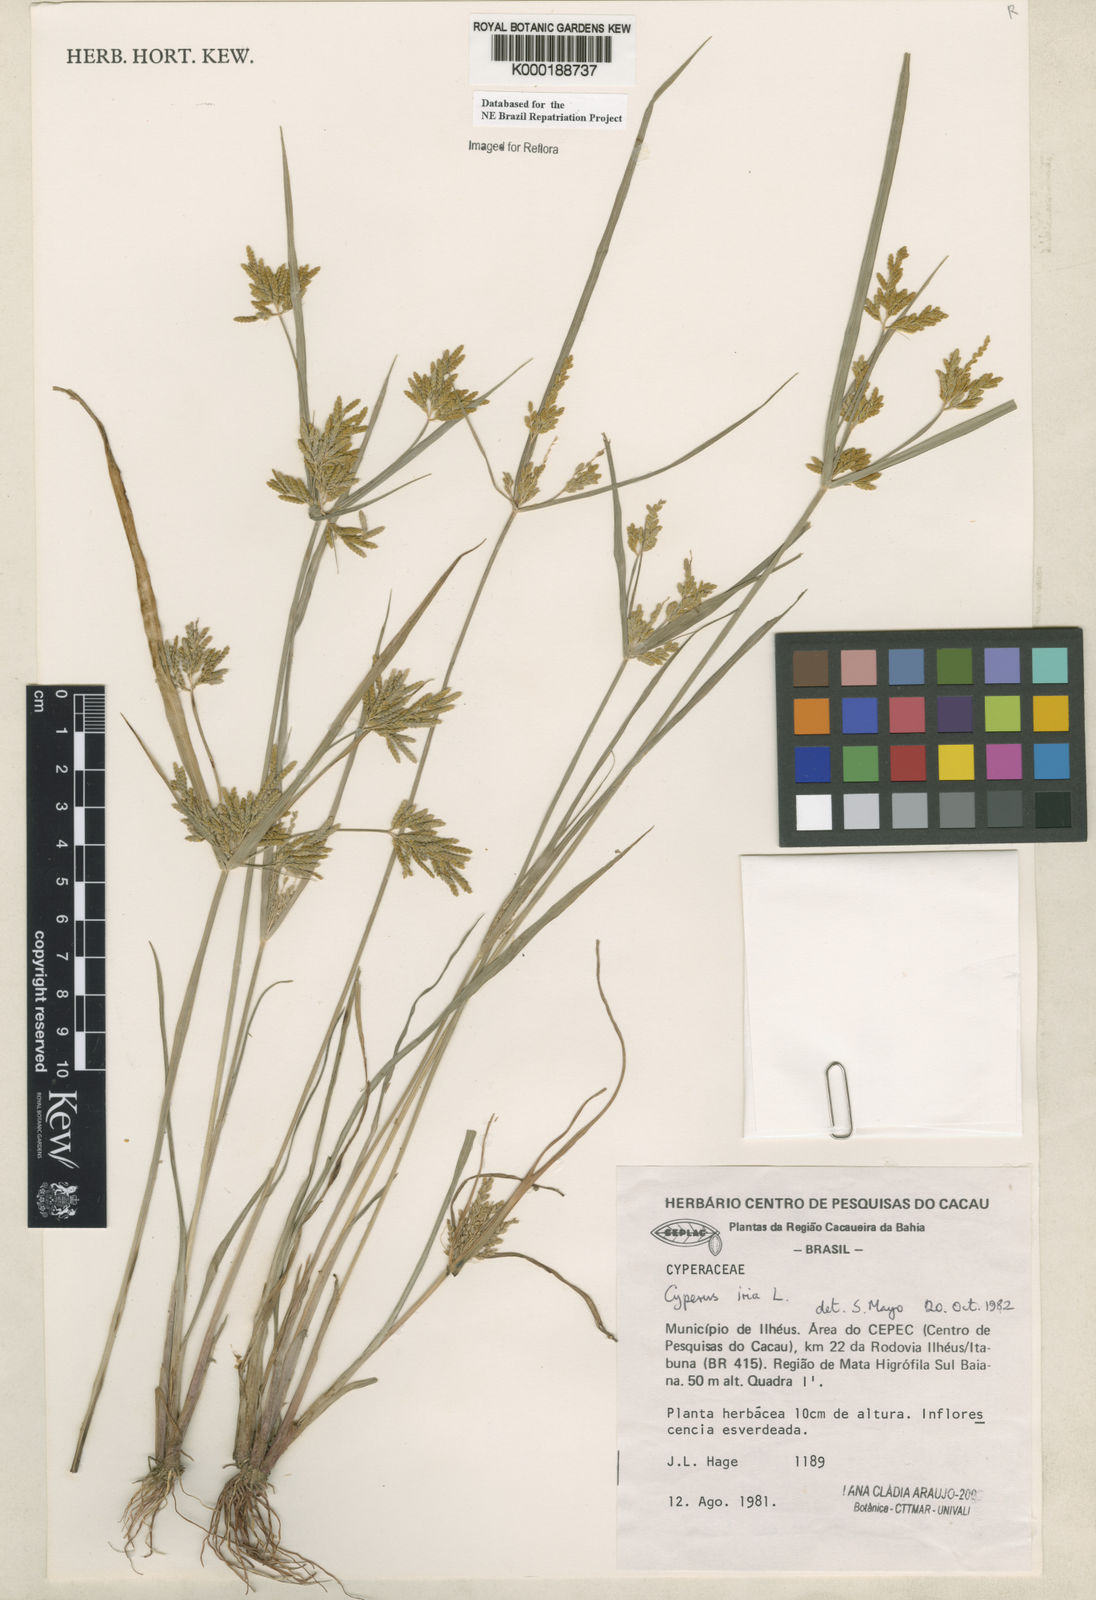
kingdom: Plantae
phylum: Tracheophyta
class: Liliopsida
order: Poales
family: Cyperaceae
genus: Cyperus
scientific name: Cyperus iria
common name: Ricefield flatsedge
